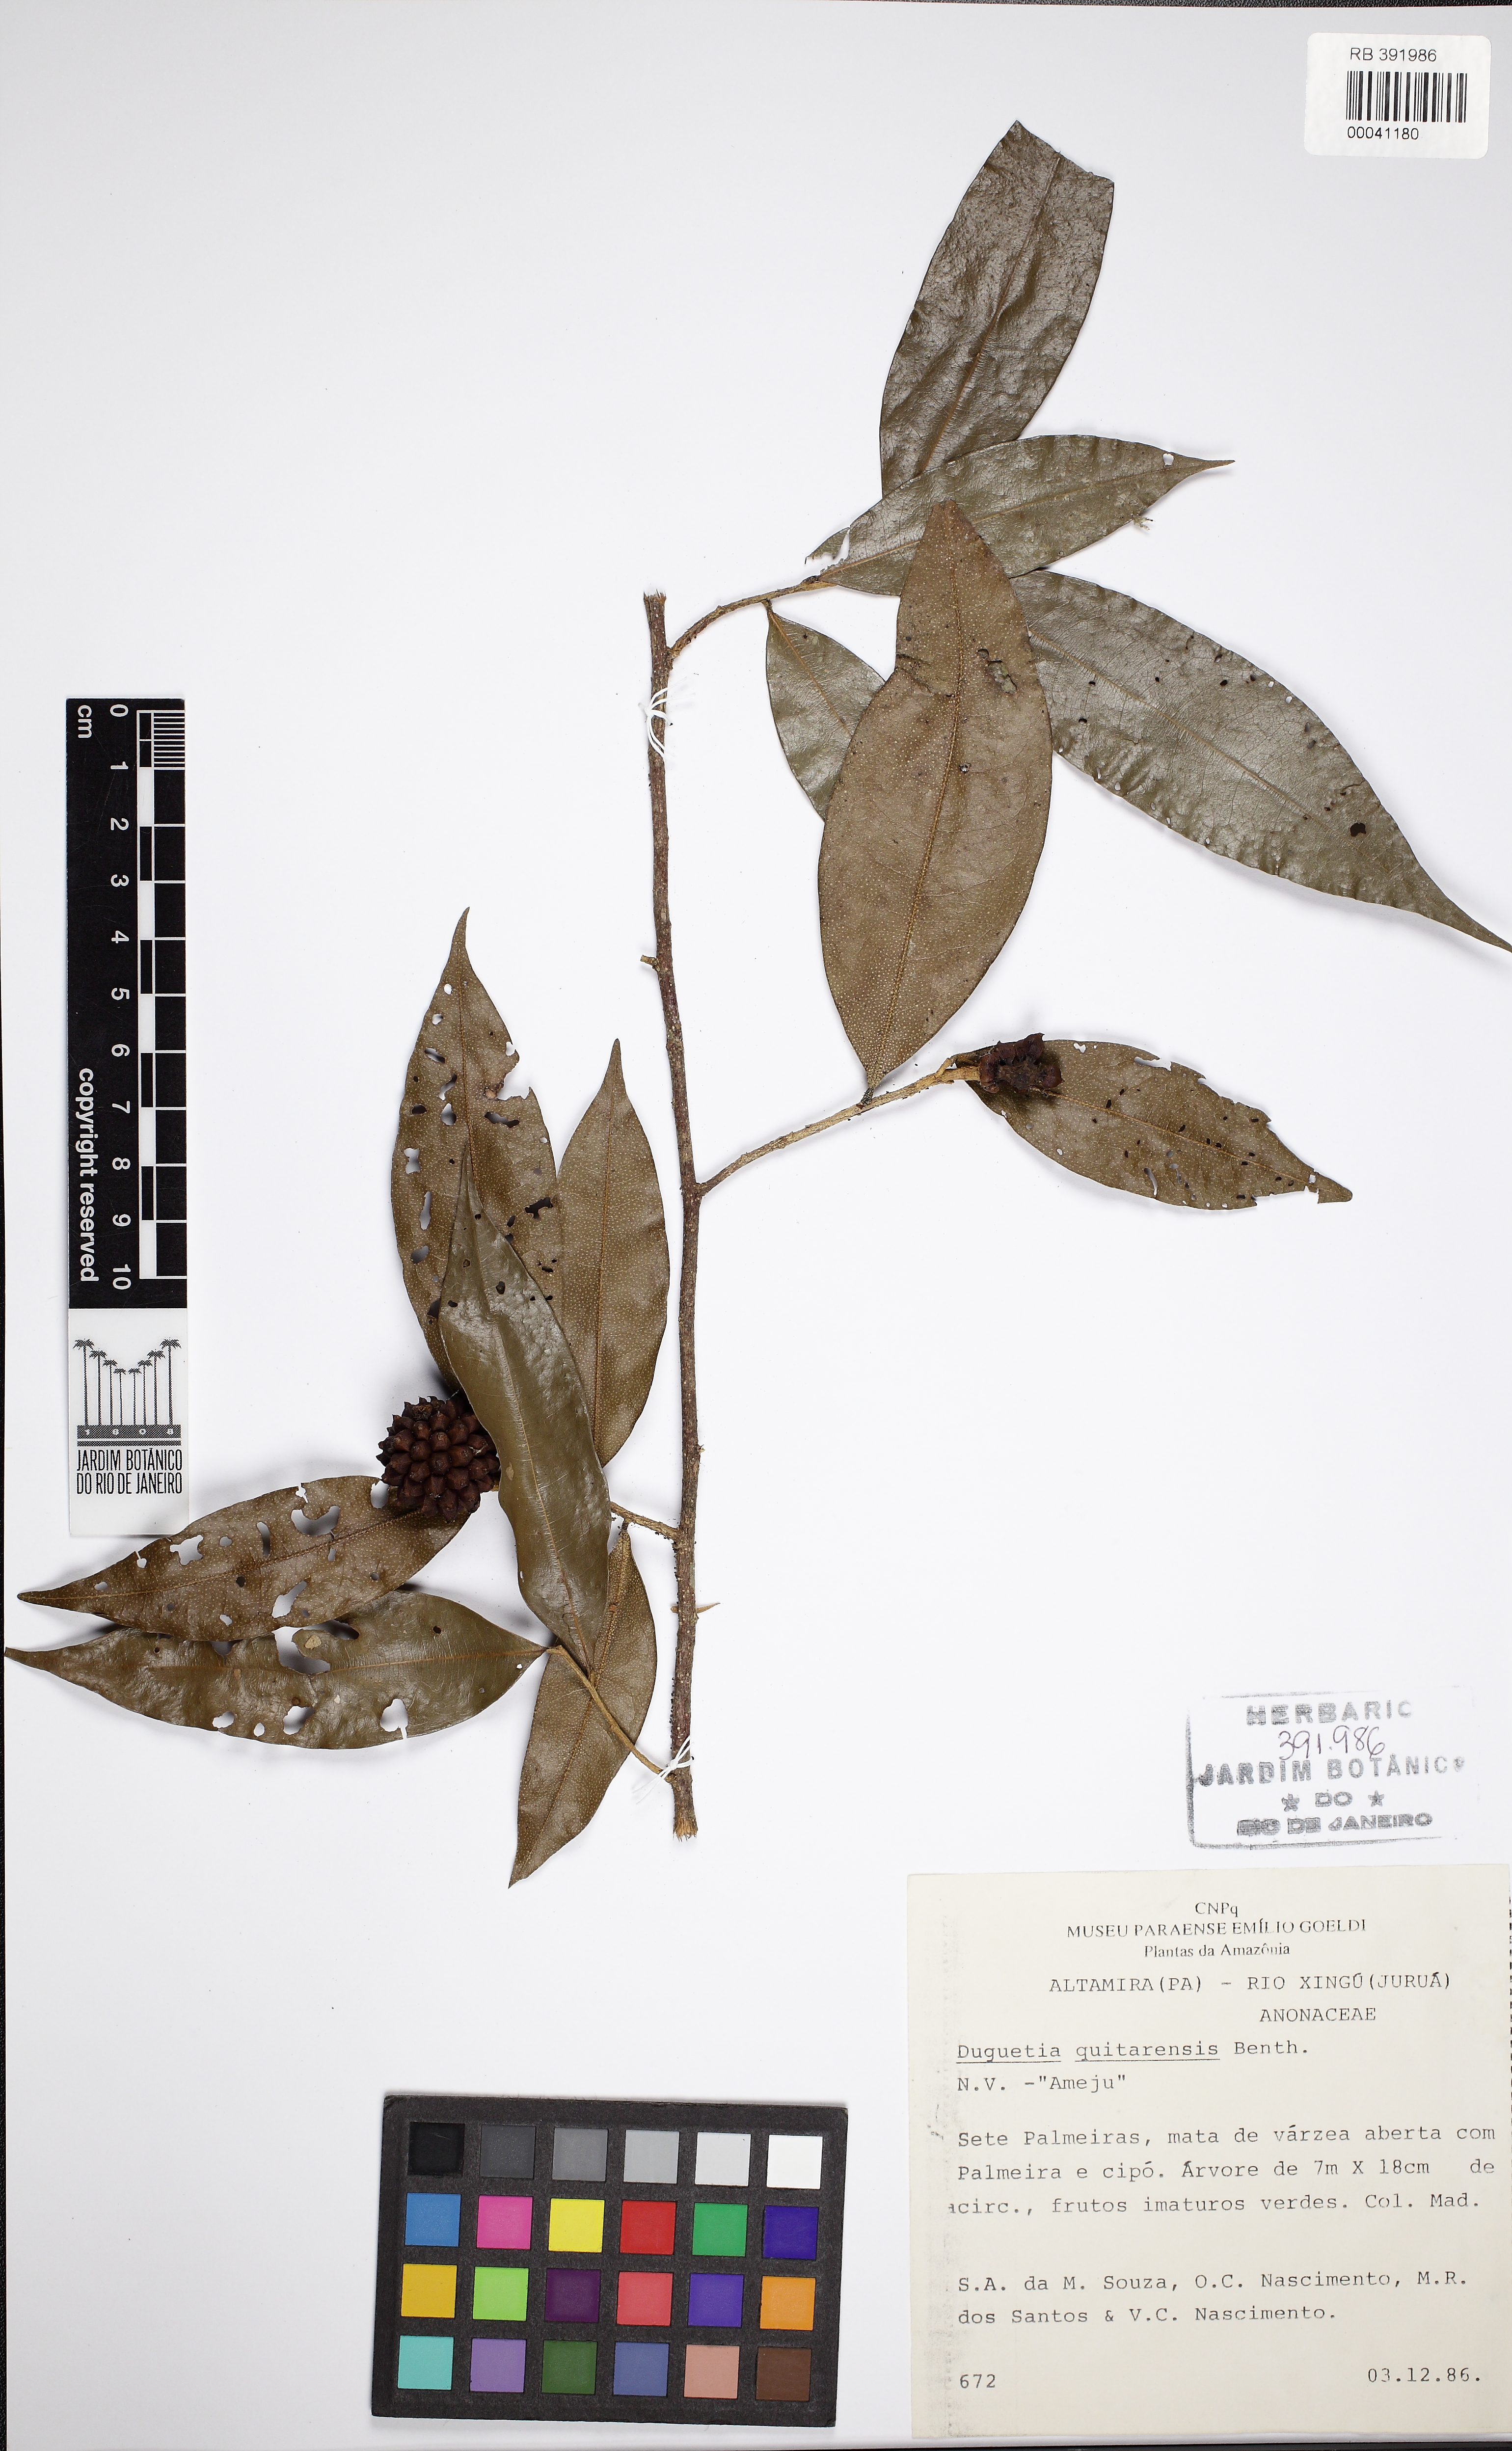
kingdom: Plantae
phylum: Tracheophyta
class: Magnoliopsida
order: Magnoliales
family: Annonaceae
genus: Duguetia
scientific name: Duguetia quitarensis
